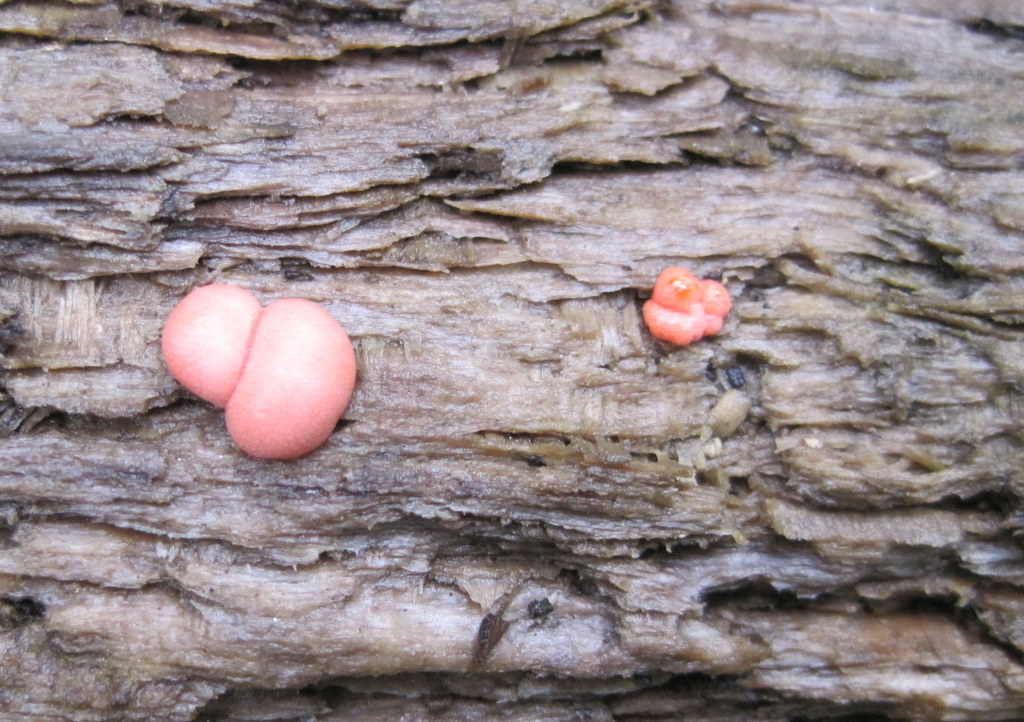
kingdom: Protozoa
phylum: Mycetozoa
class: Myxomycetes
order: Cribrariales
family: Tubiferaceae
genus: Lycogala
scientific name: Lycogala epidendrum
